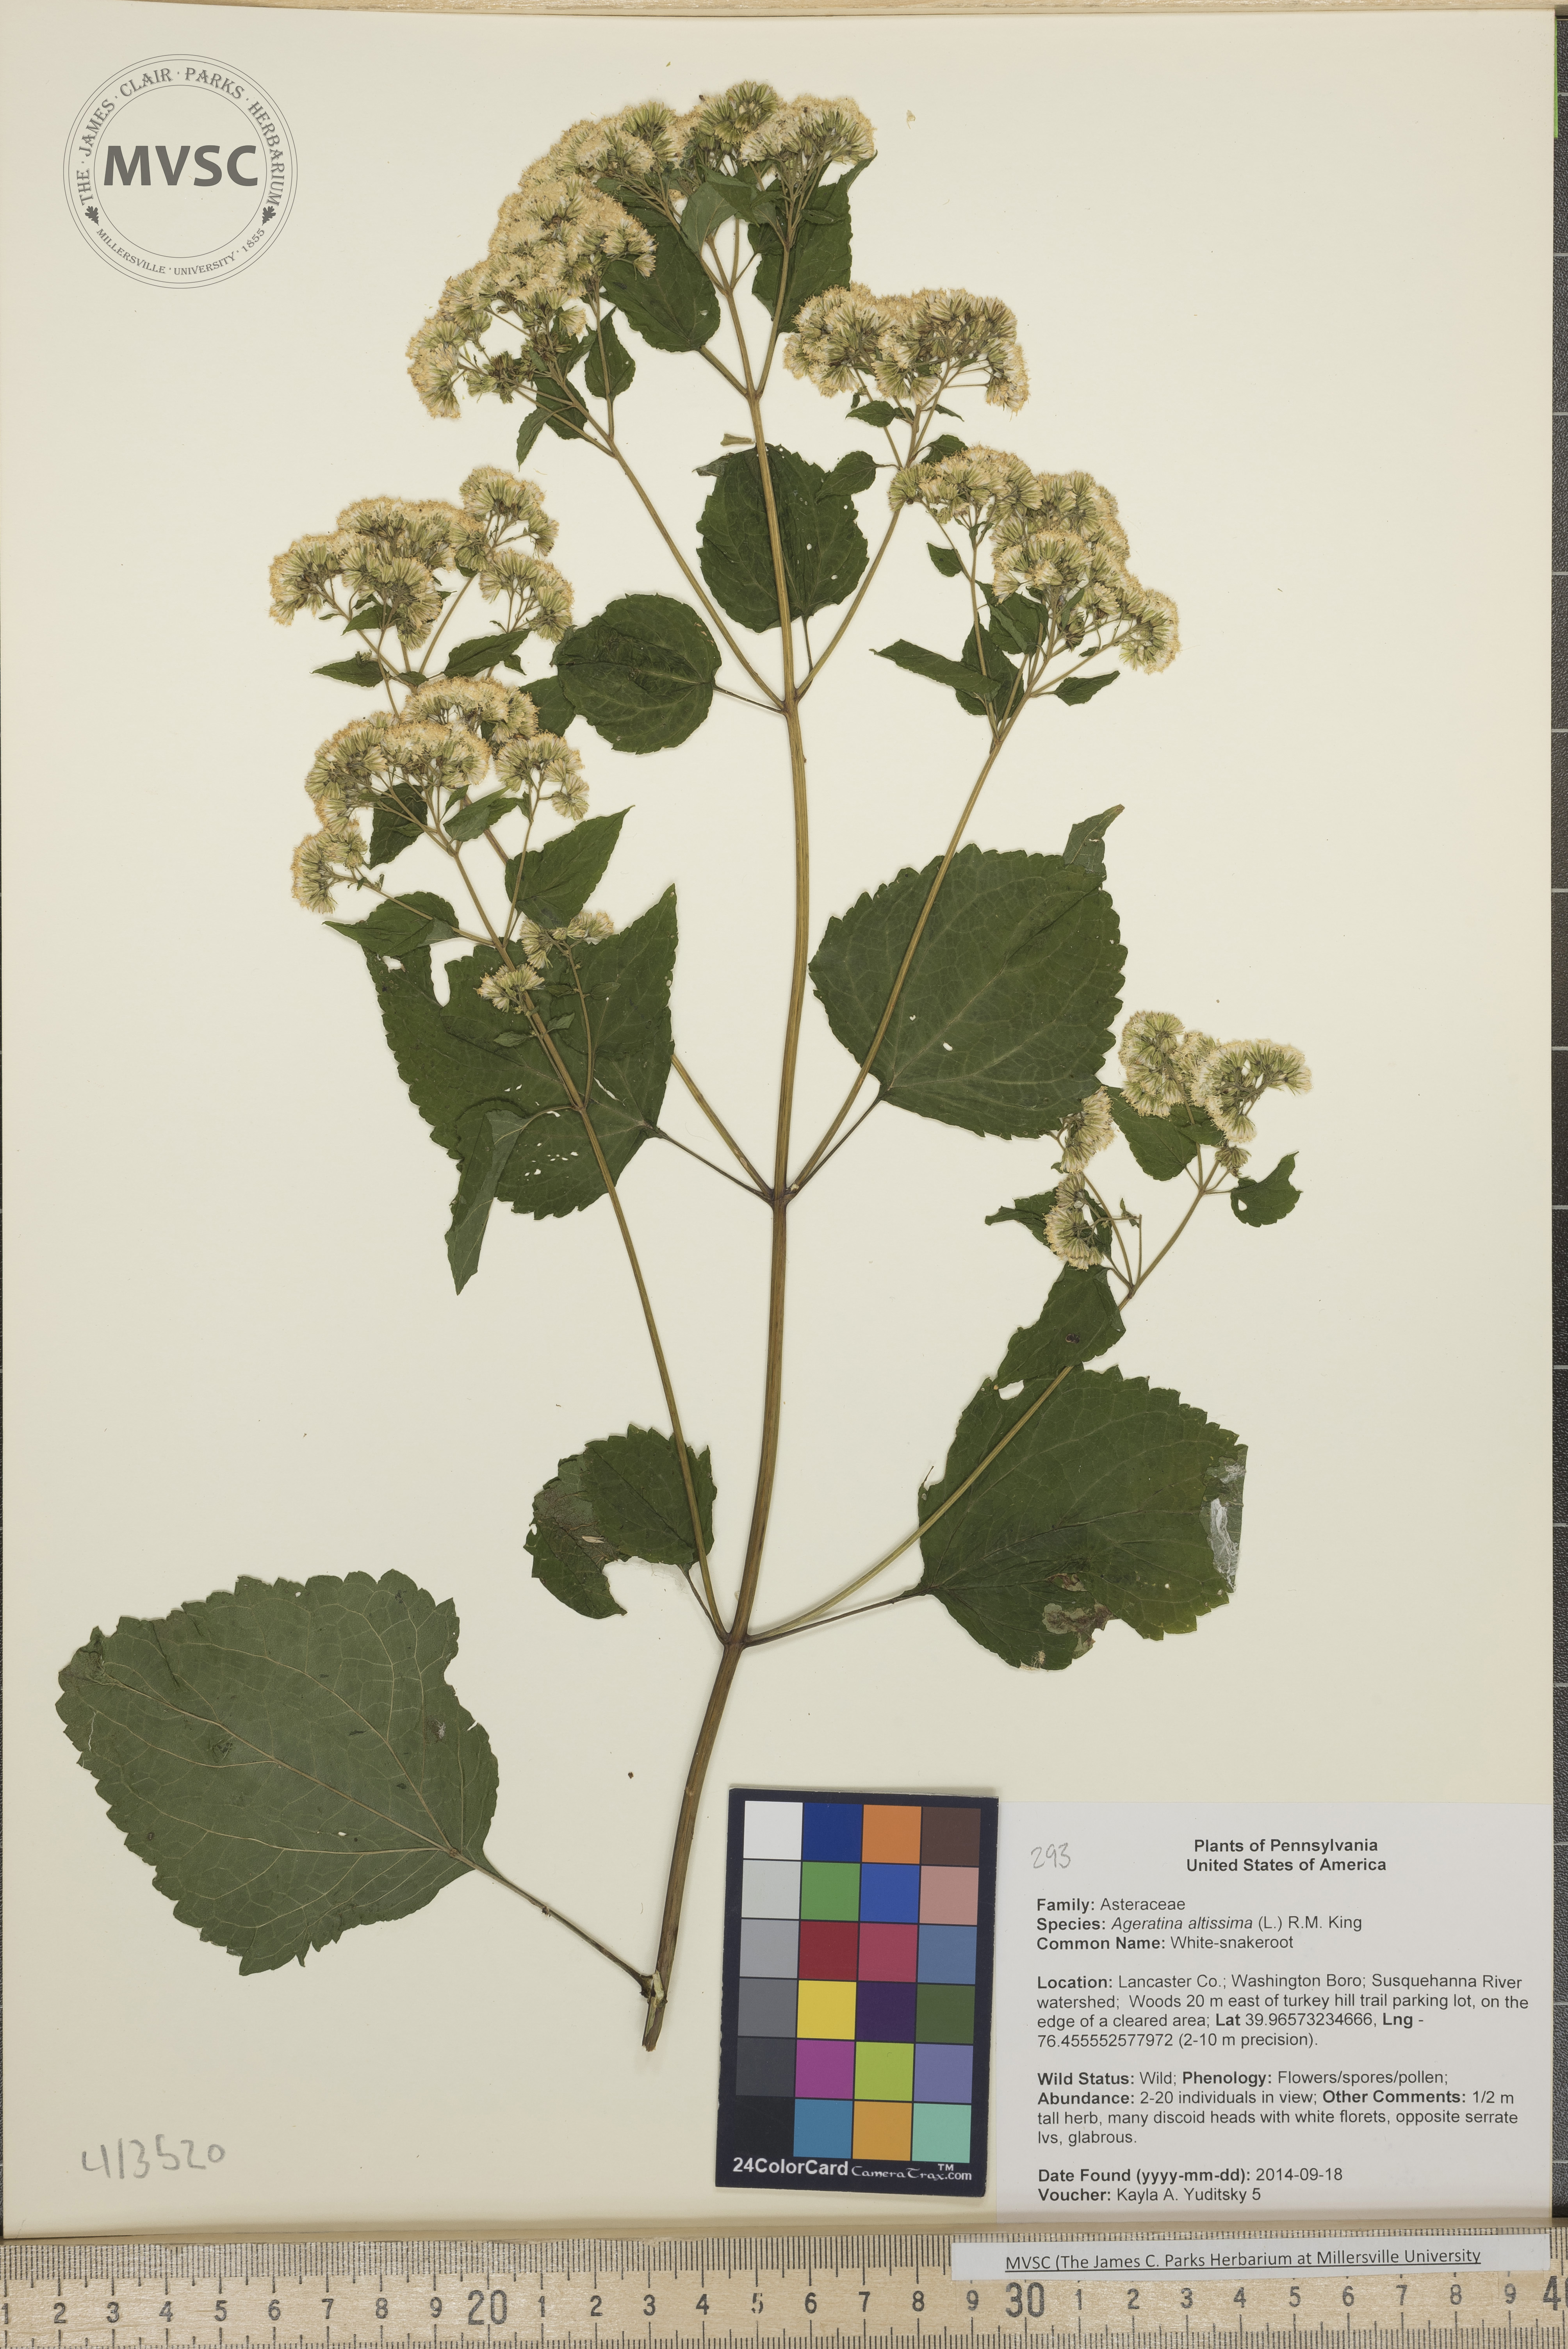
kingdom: Plantae
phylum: Tracheophyta
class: Magnoliopsida
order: Asterales
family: Asteraceae
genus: Ageratina
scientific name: Ageratina altissima
